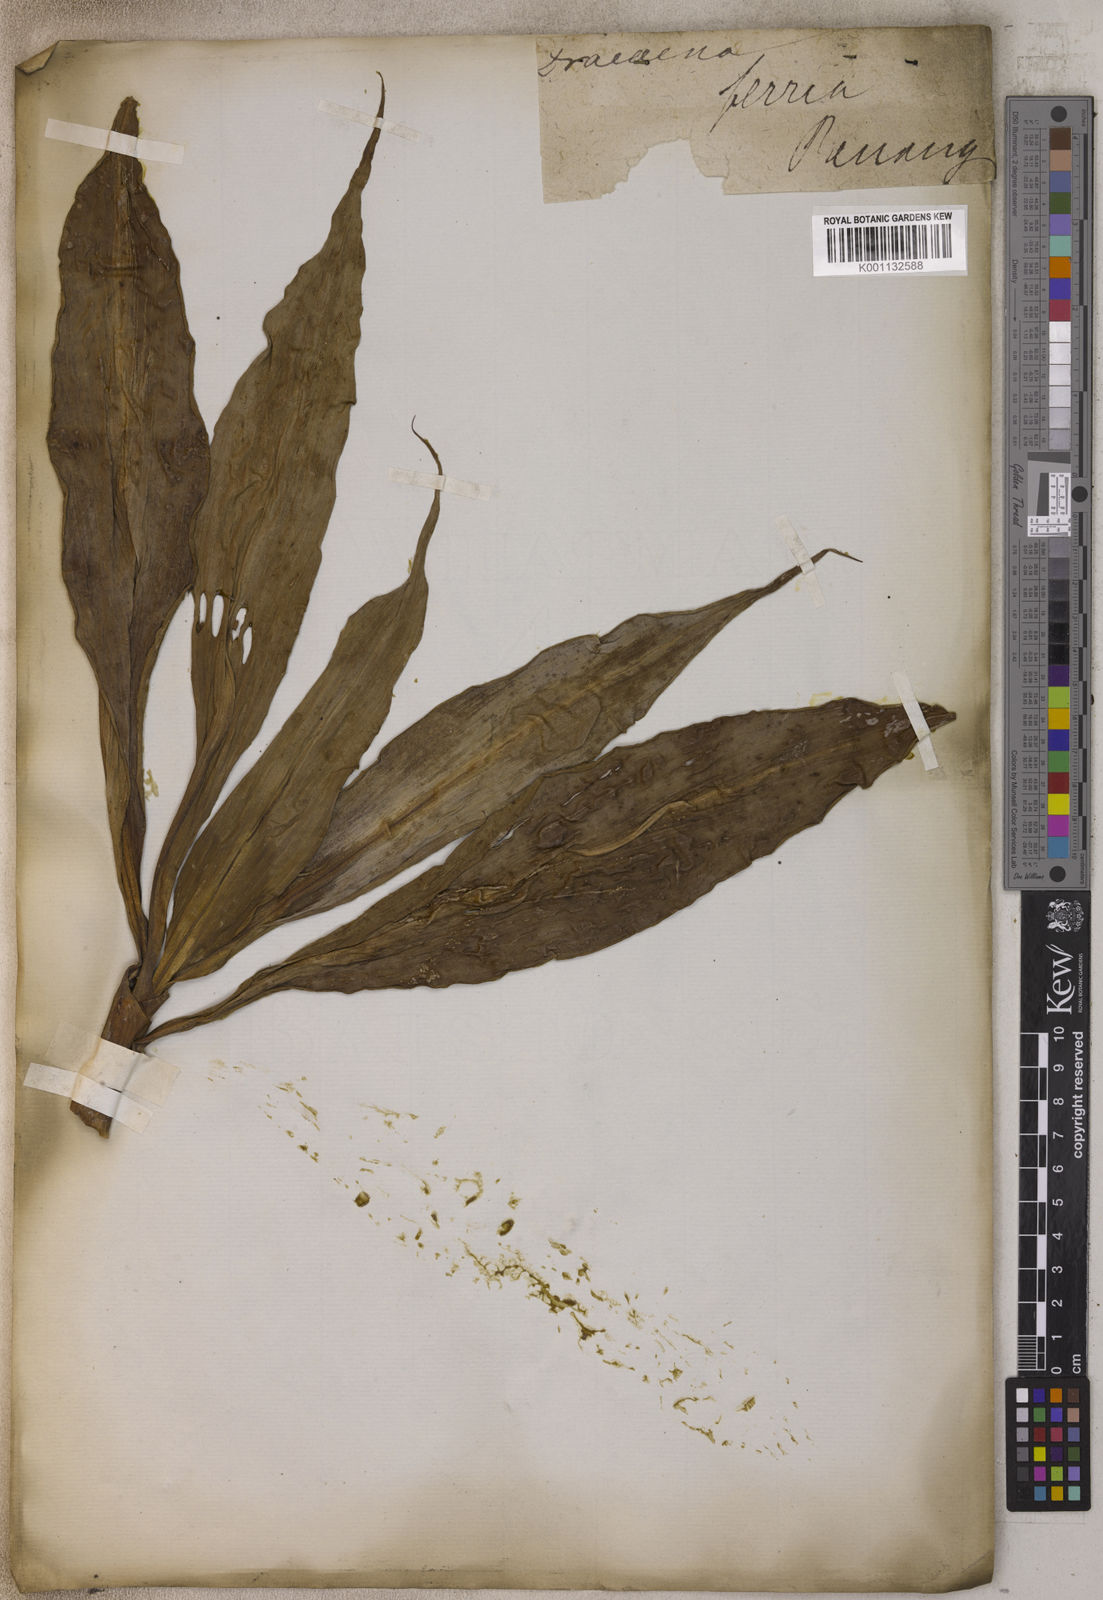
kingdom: Plantae
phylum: Tracheophyta
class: Liliopsida
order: Asparagales
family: Asparagaceae
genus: Cordyline
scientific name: Cordyline fruticosa
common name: Good-luck-plant
